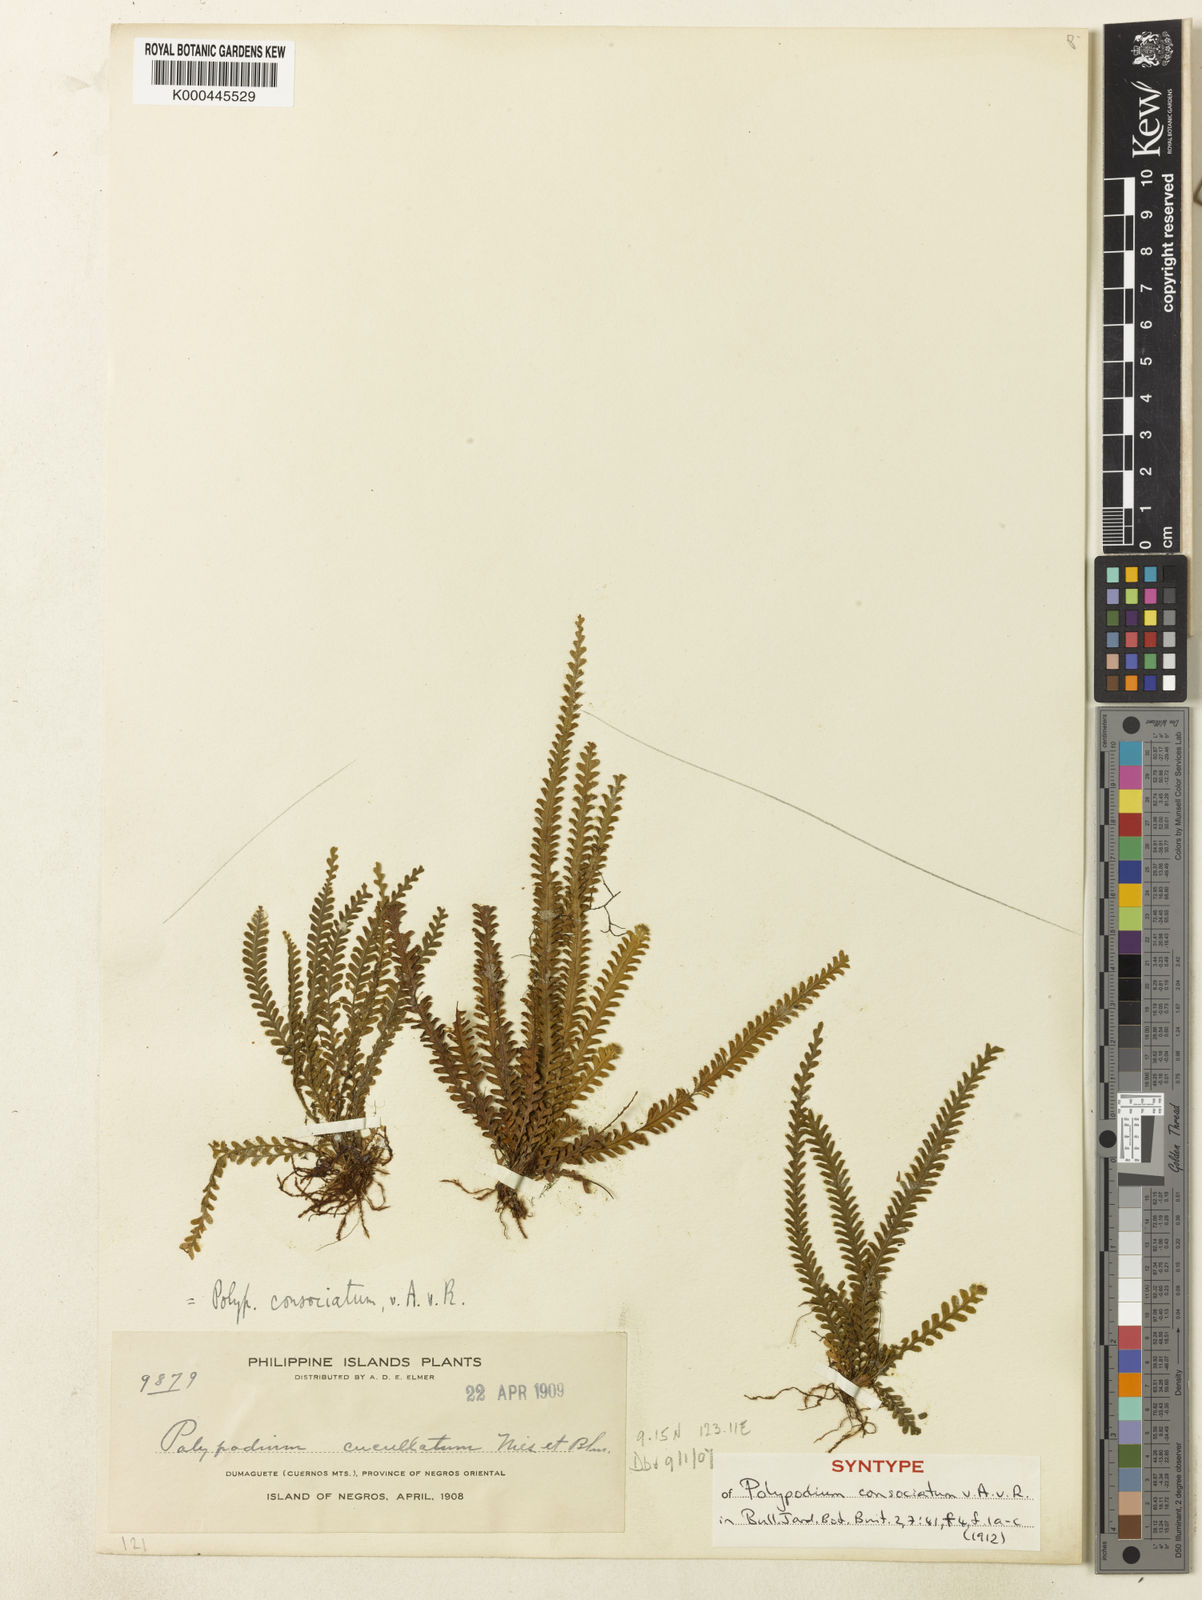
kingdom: Plantae
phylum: Tracheophyta
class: Polypodiopsida
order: Polypodiales
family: Polypodiaceae
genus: Calymmodon
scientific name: Calymmodon gracilis
